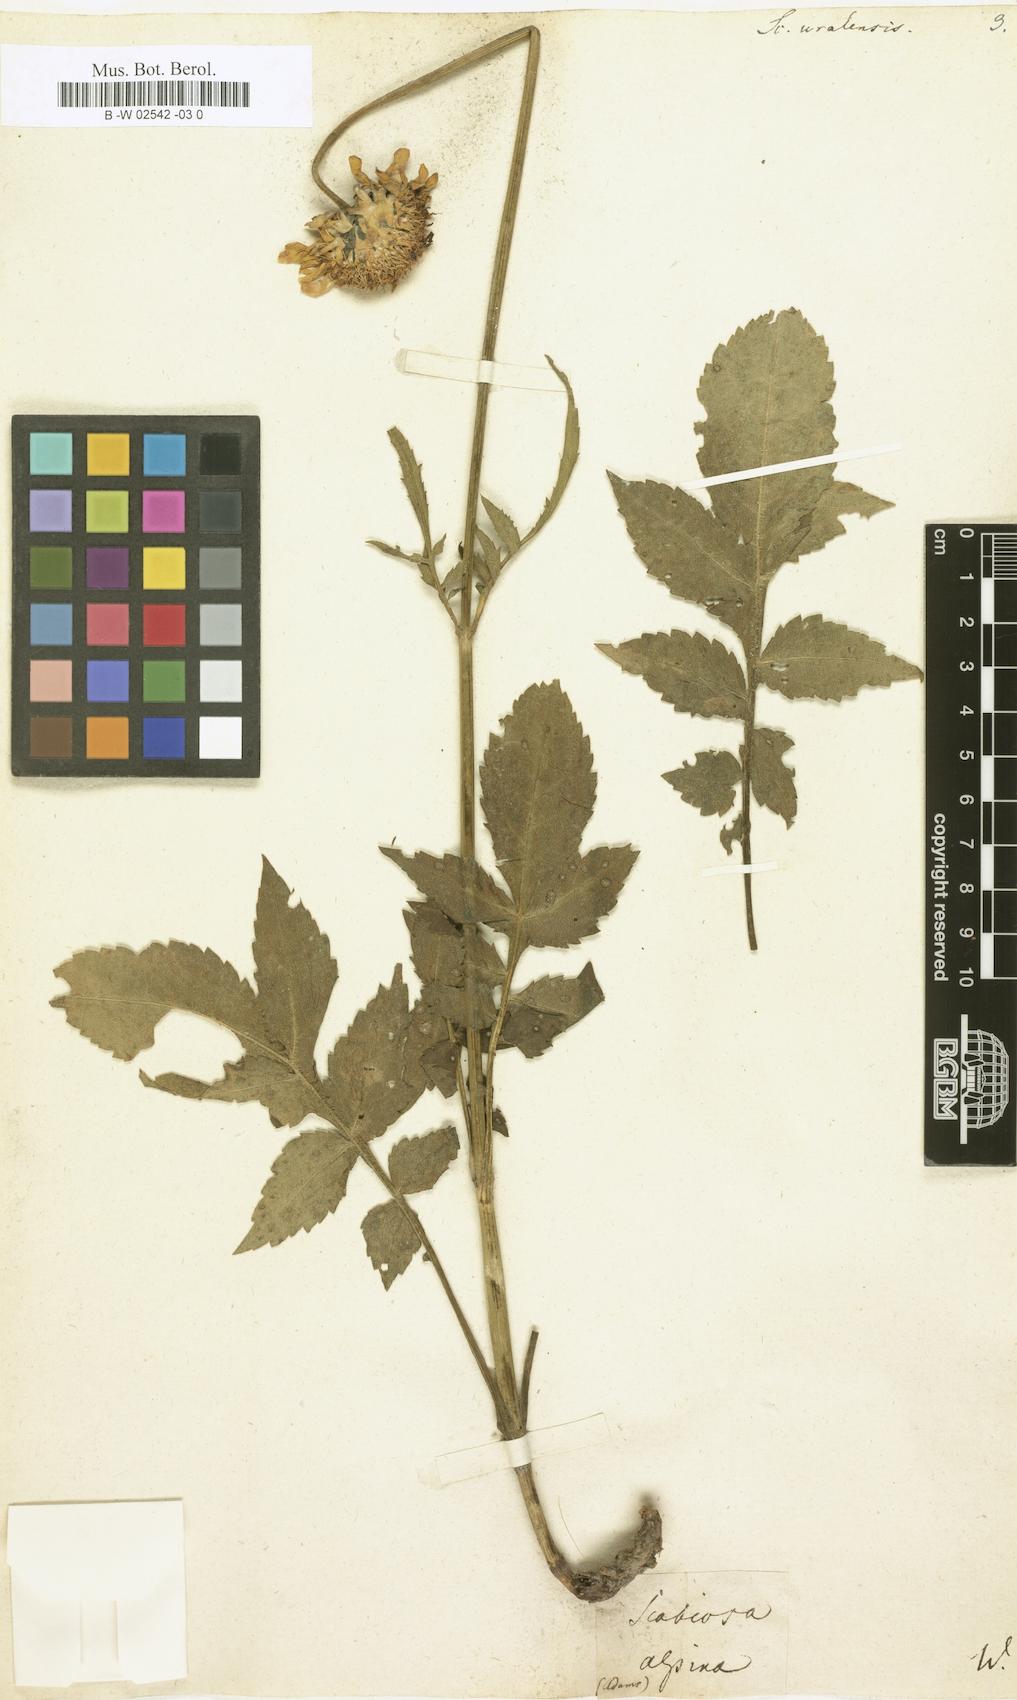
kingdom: Plantae
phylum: Tracheophyta
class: Magnoliopsida
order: Dipsacales
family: Caprifoliaceae
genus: Cephalaria
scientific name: Cephalaria uralensis
